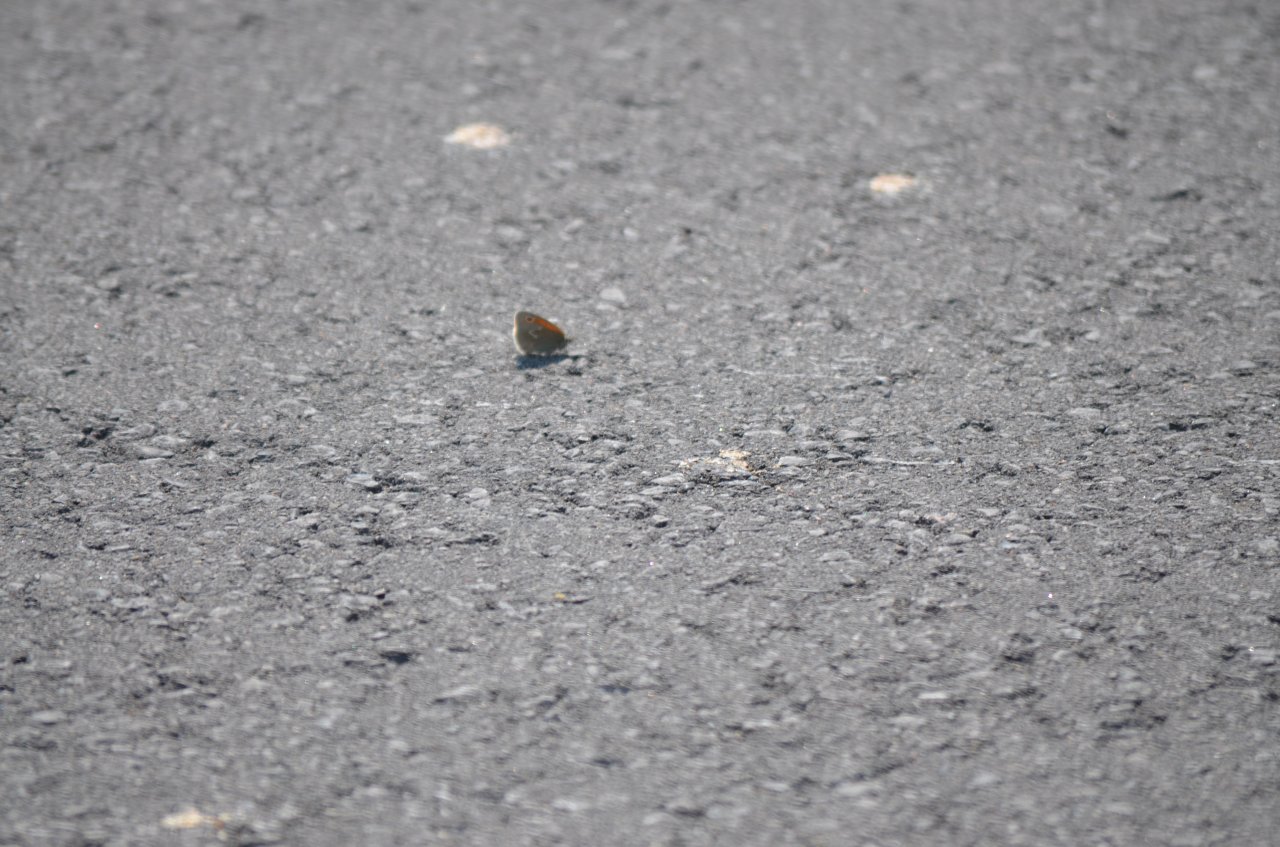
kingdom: Animalia
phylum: Arthropoda
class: Insecta
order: Lepidoptera
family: Nymphalidae
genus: Coenonympha
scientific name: Coenonympha tullia
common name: Large Heath
